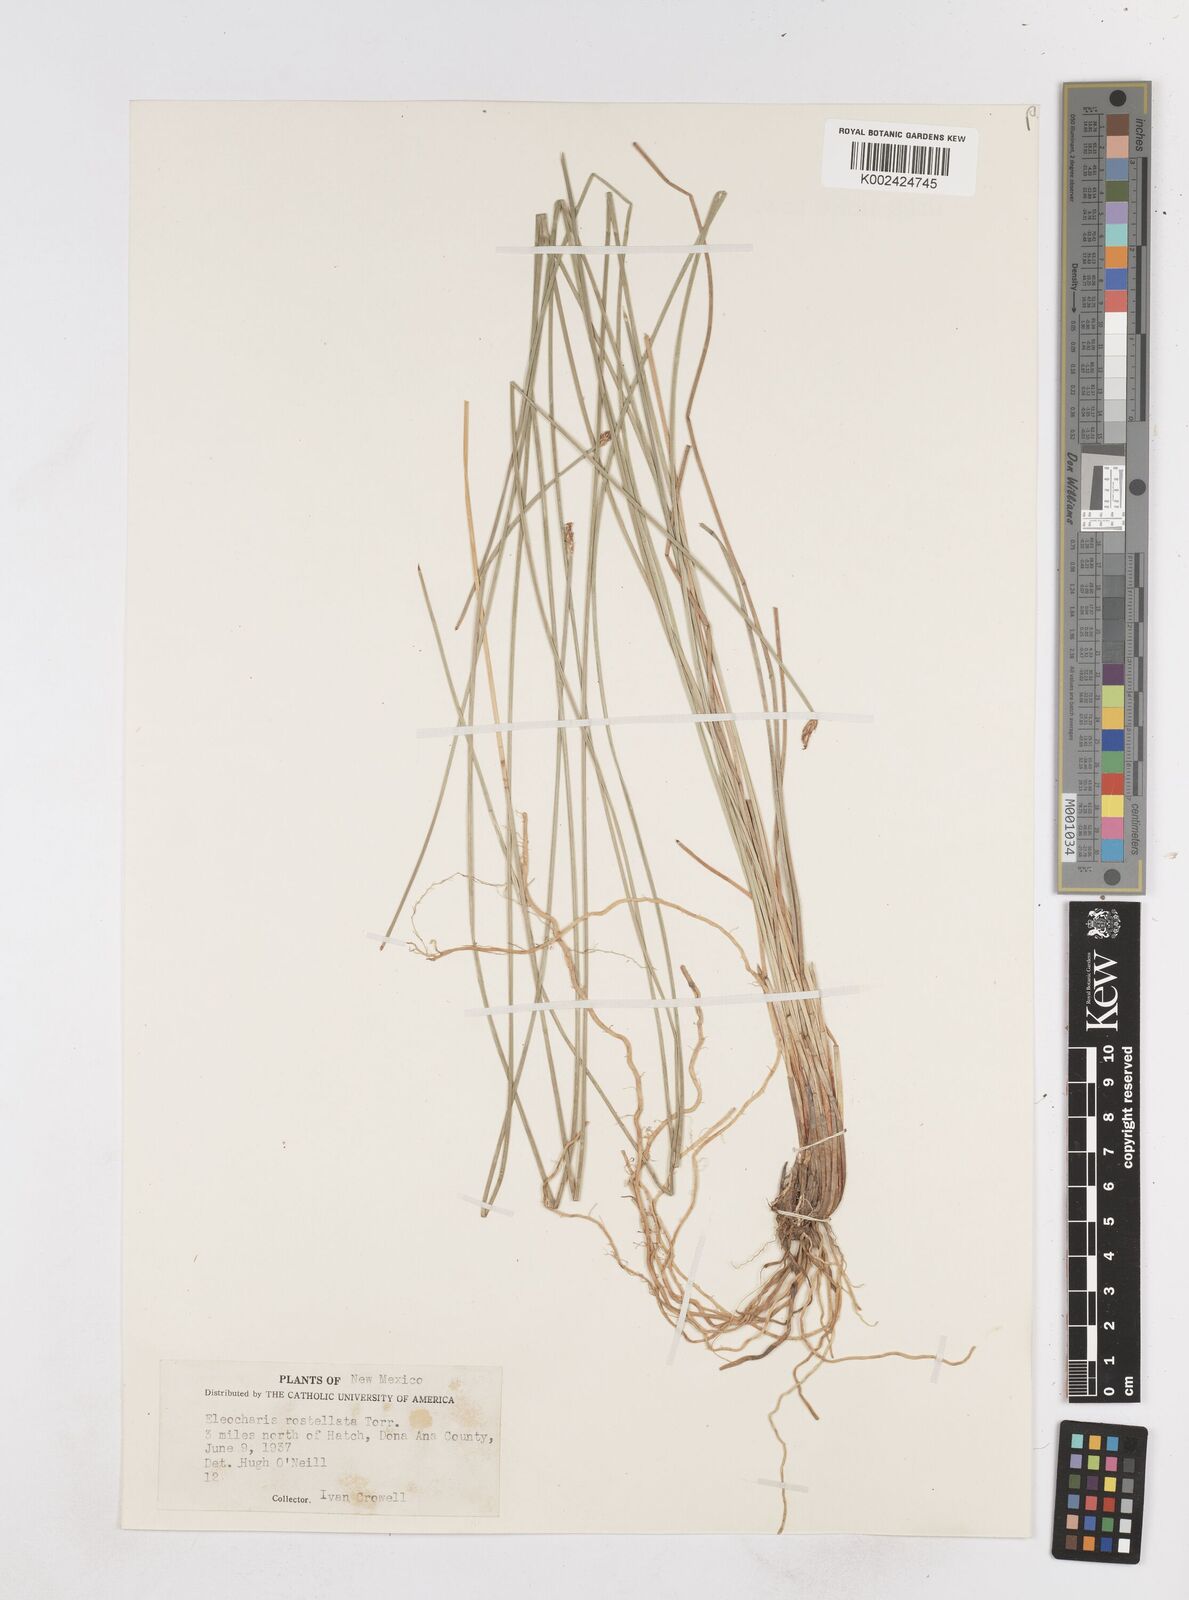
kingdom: Plantae
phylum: Tracheophyta
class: Liliopsida
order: Poales
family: Cyperaceae
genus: Eleocharis
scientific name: Eleocharis rostellata
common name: Walking sedge
